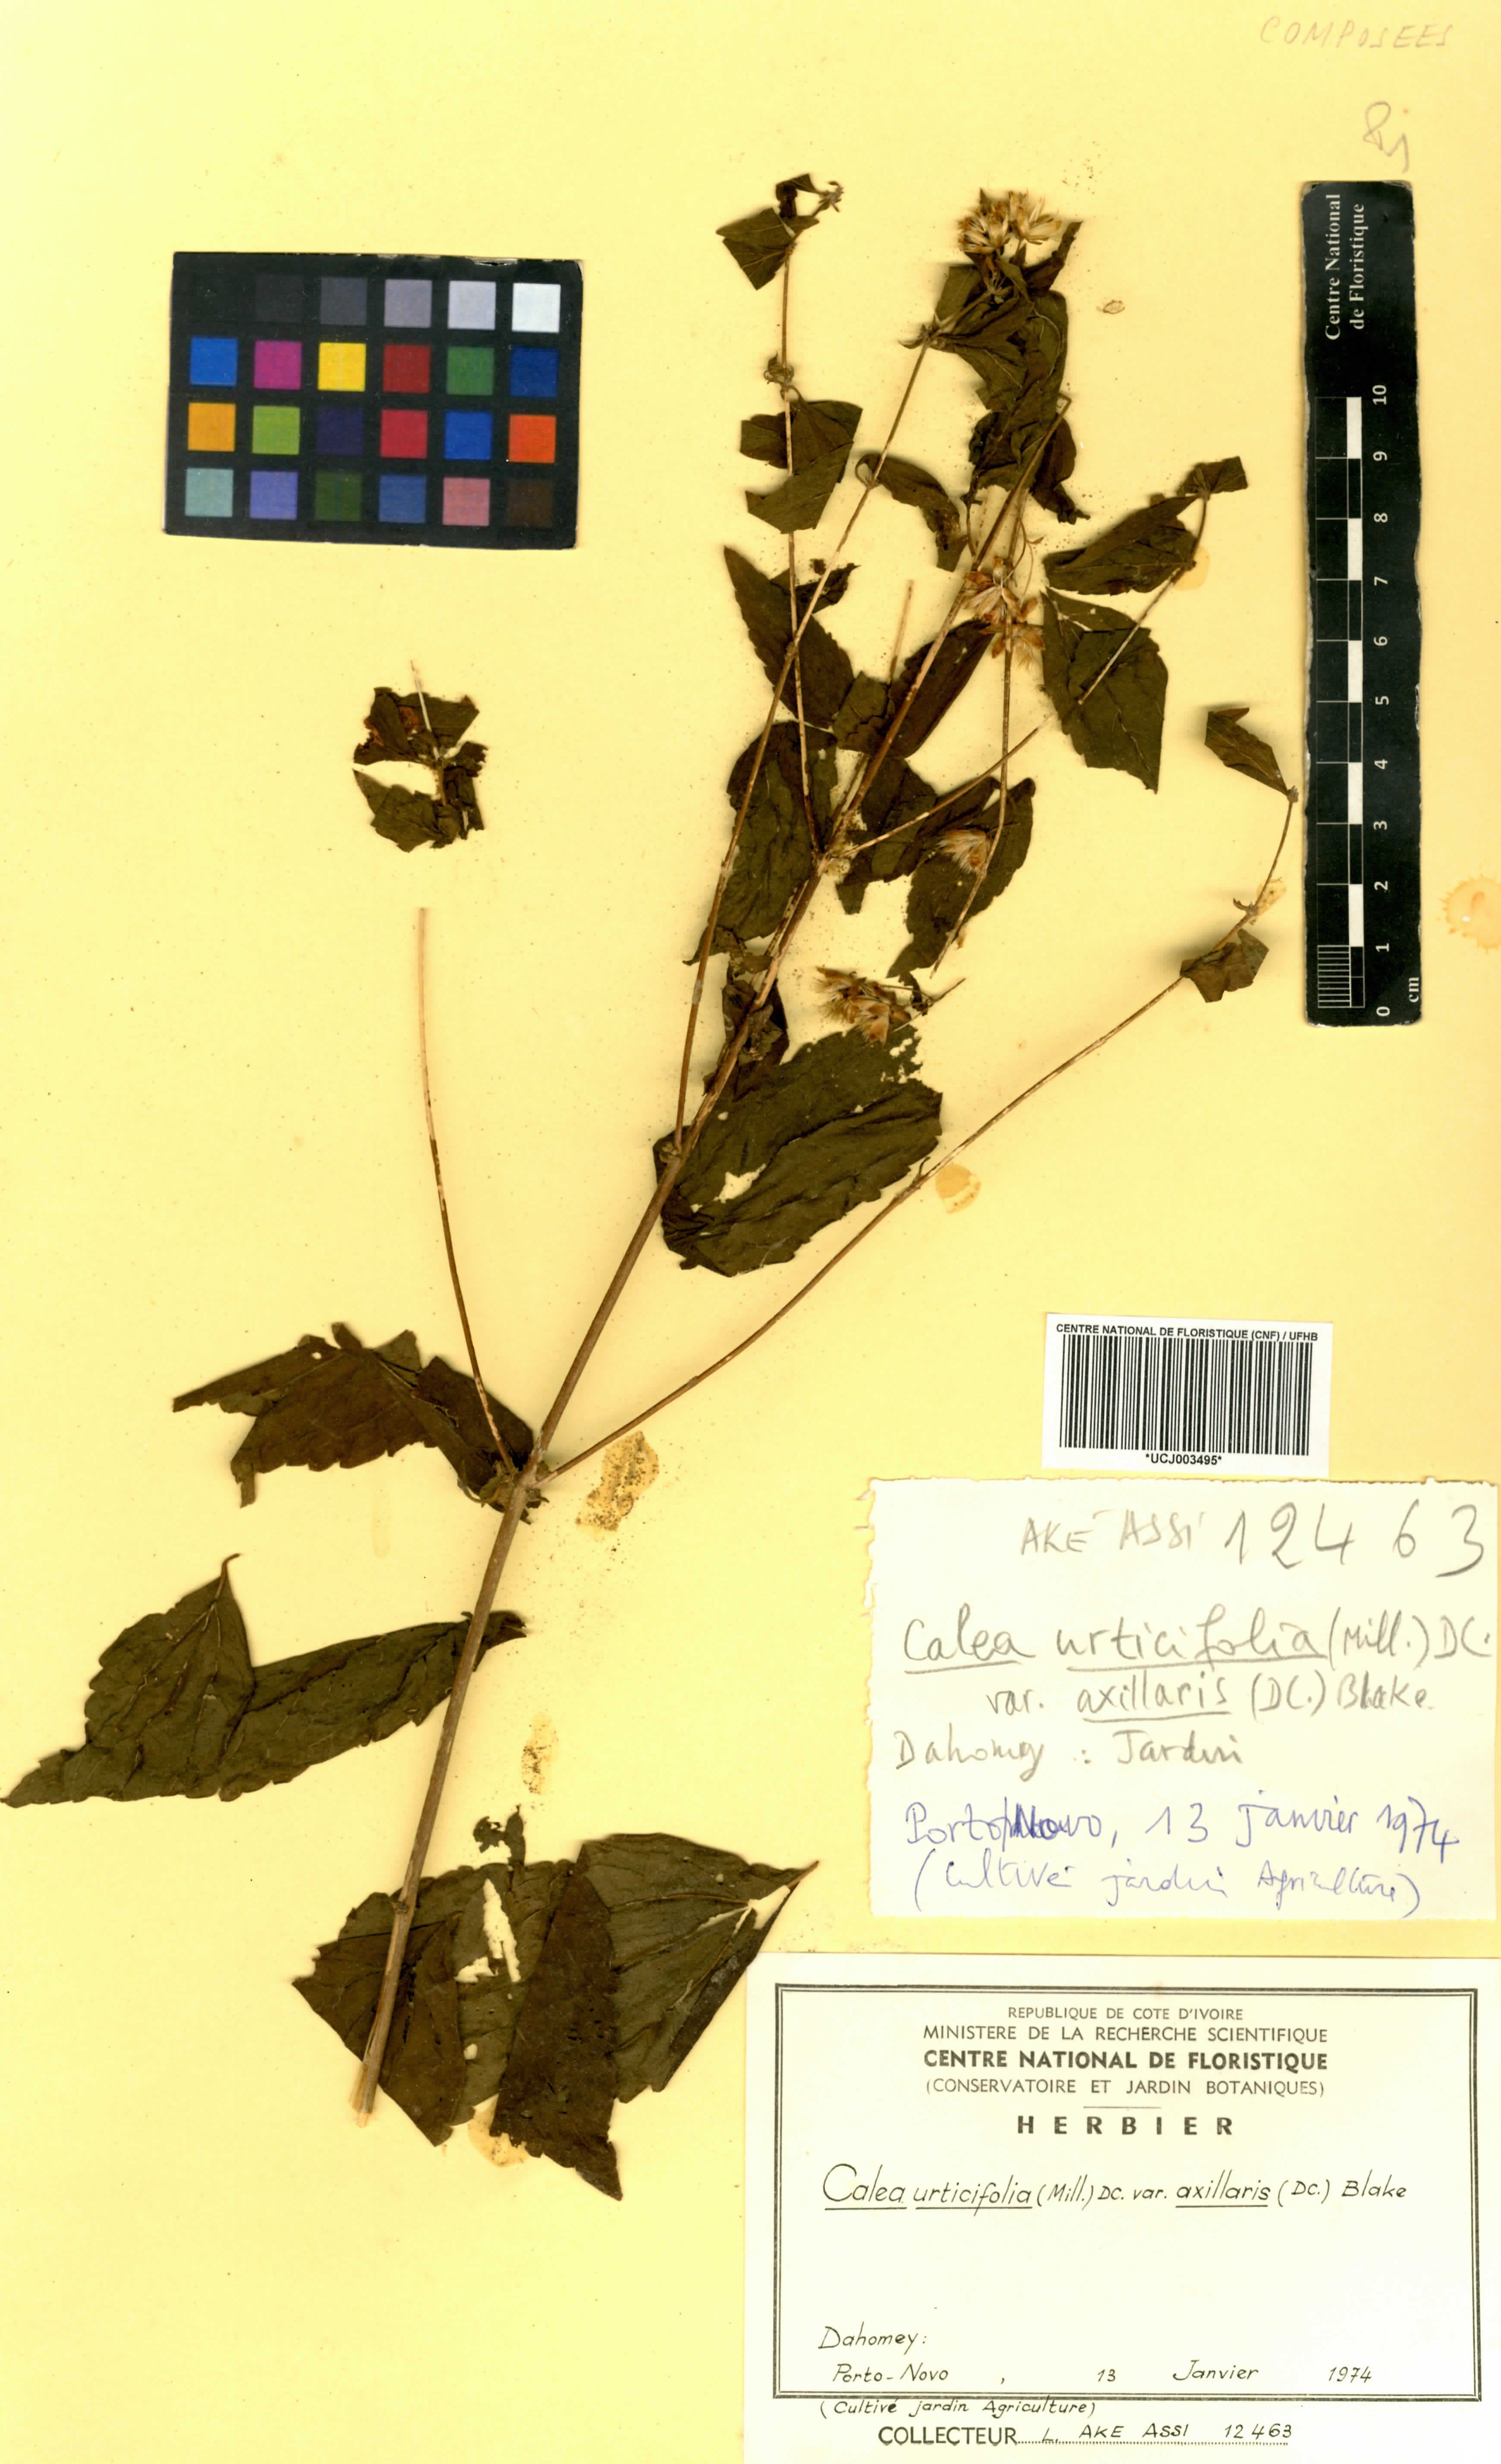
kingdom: Plantae
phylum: Tracheophyta
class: Magnoliopsida
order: Asterales
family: Asteraceae
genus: Calea
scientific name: Calea urticifolia
